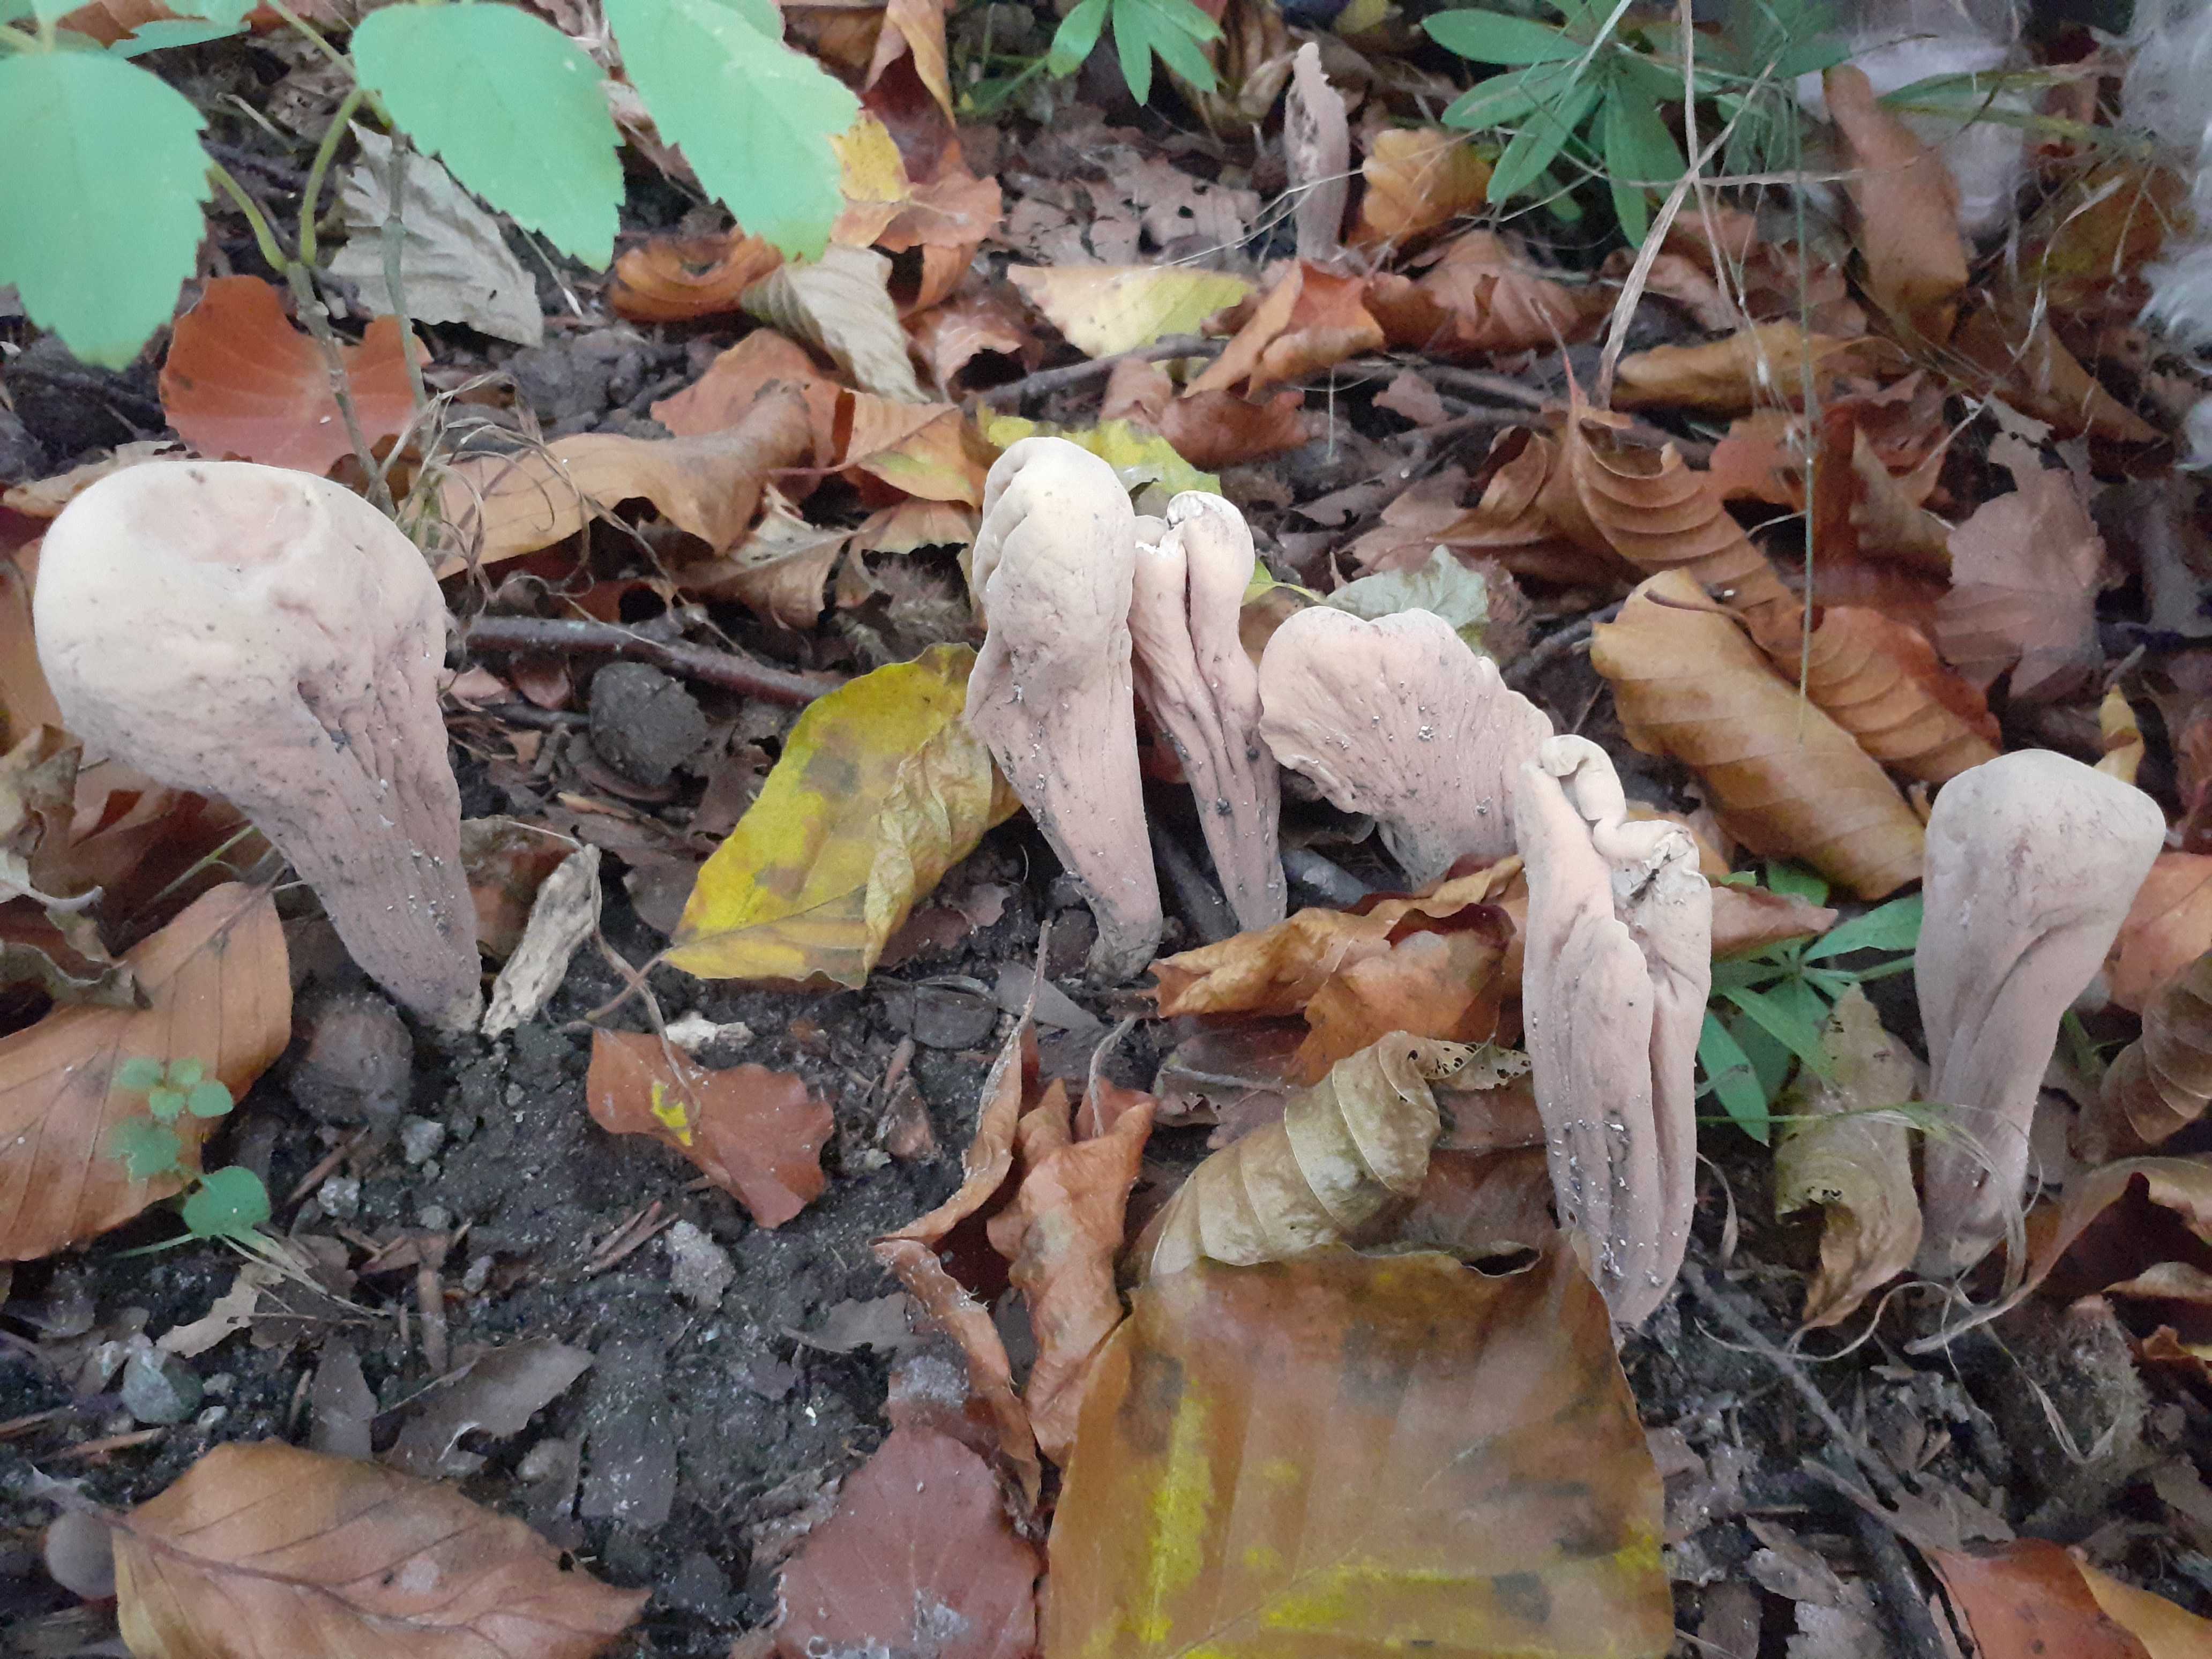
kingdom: Fungi
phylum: Basidiomycota
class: Agaricomycetes
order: Gomphales
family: Clavariadelphaceae
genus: Clavariadelphus
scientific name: Clavariadelphus pistillaris
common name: herkules-kæmpekølle
